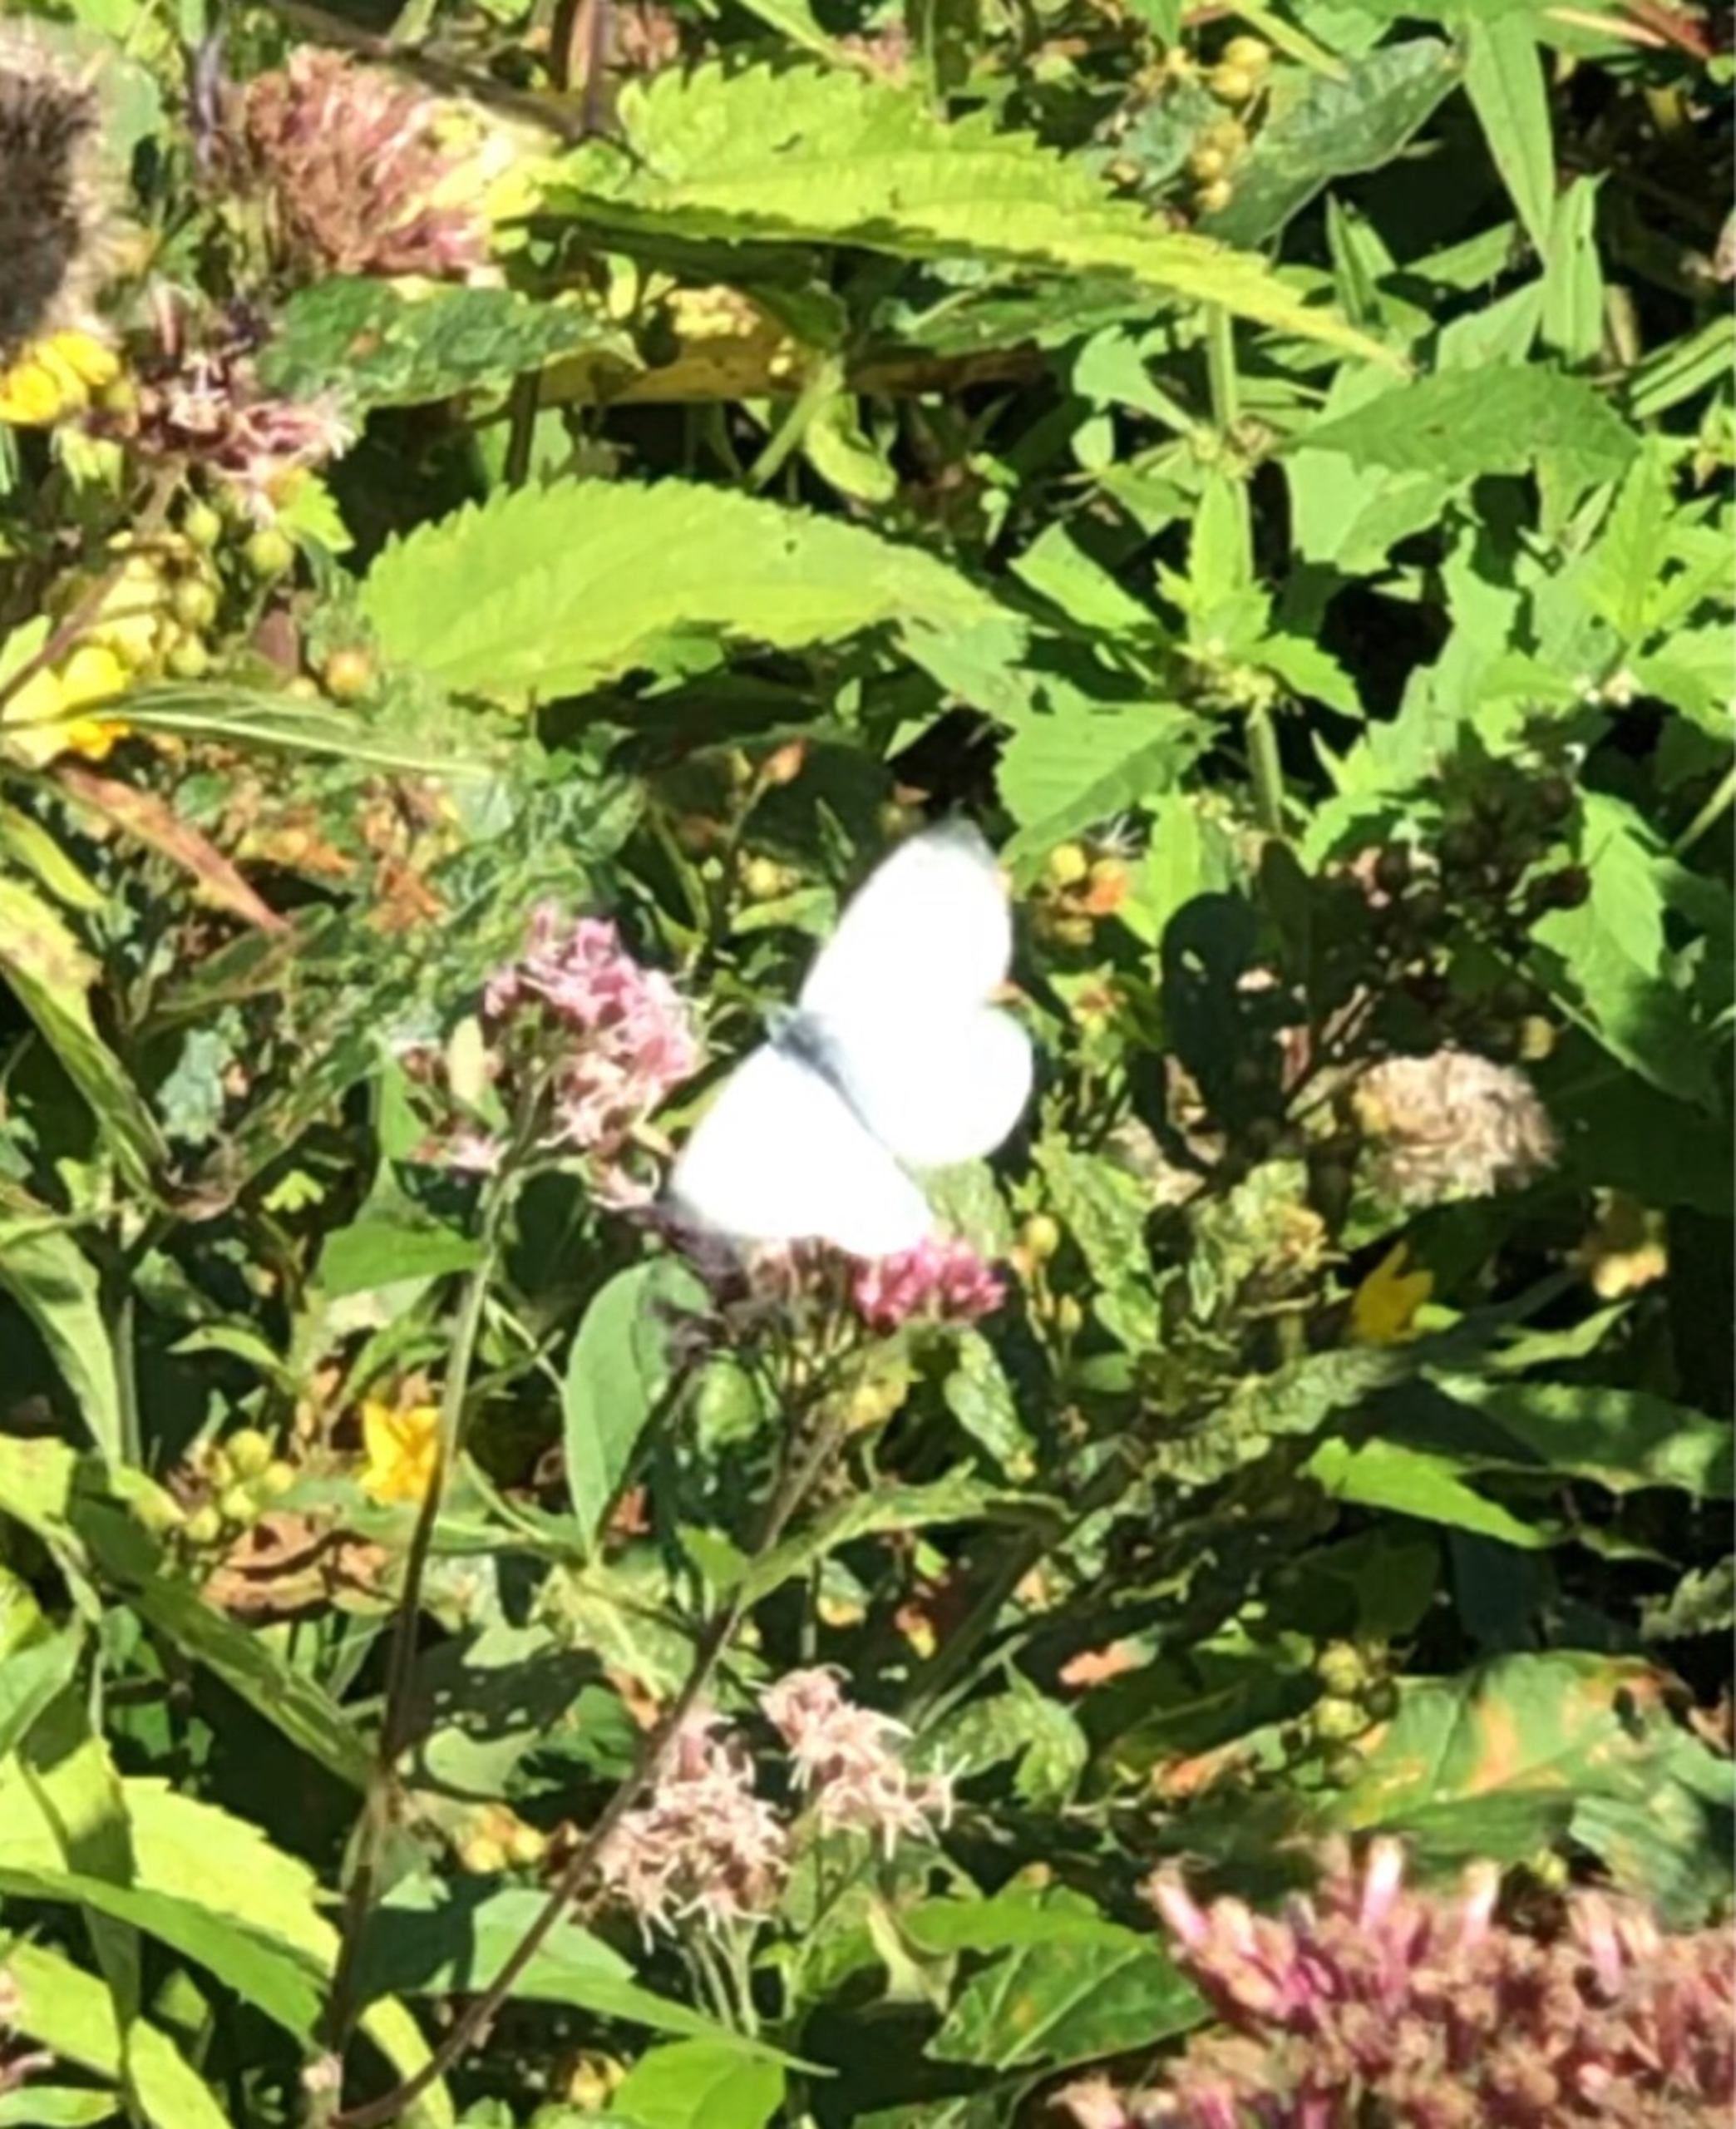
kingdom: Animalia
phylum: Arthropoda
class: Insecta
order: Lepidoptera
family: Pieridae
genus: Pieris
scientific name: Pieris rapae
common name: Lille kålsommerfugl
